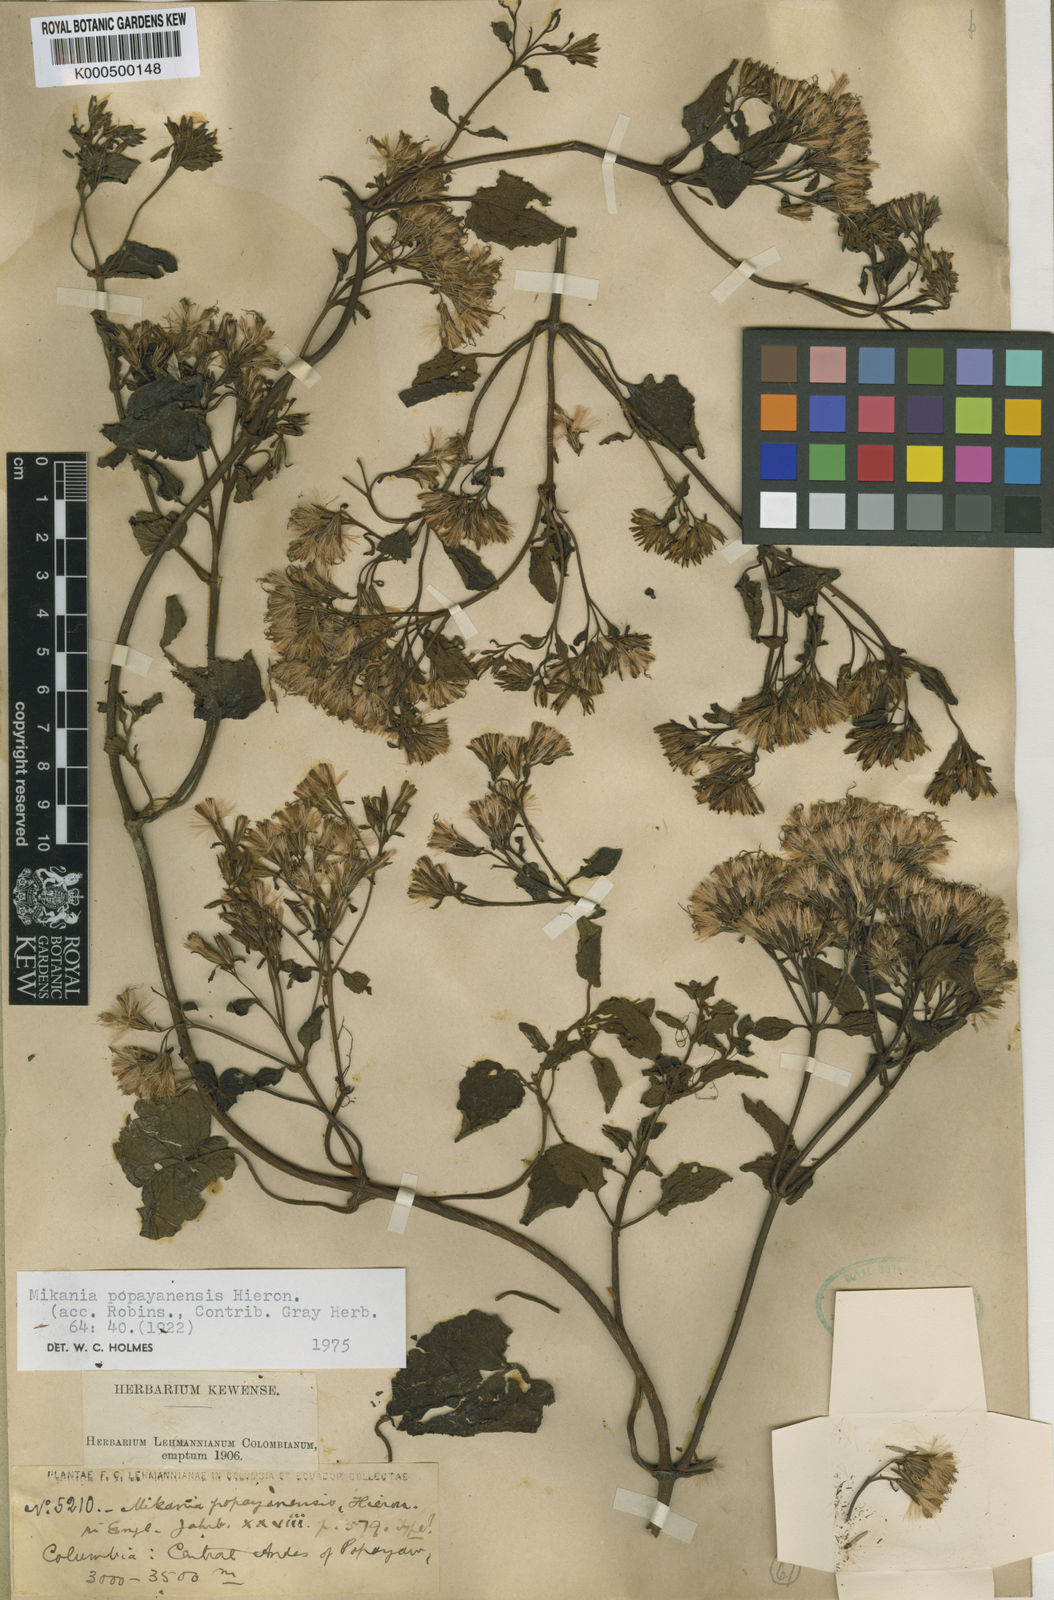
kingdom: Plantae
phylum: Tracheophyta
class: Magnoliopsida
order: Asterales
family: Asteraceae
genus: Mikania
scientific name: Mikania popayanensis
